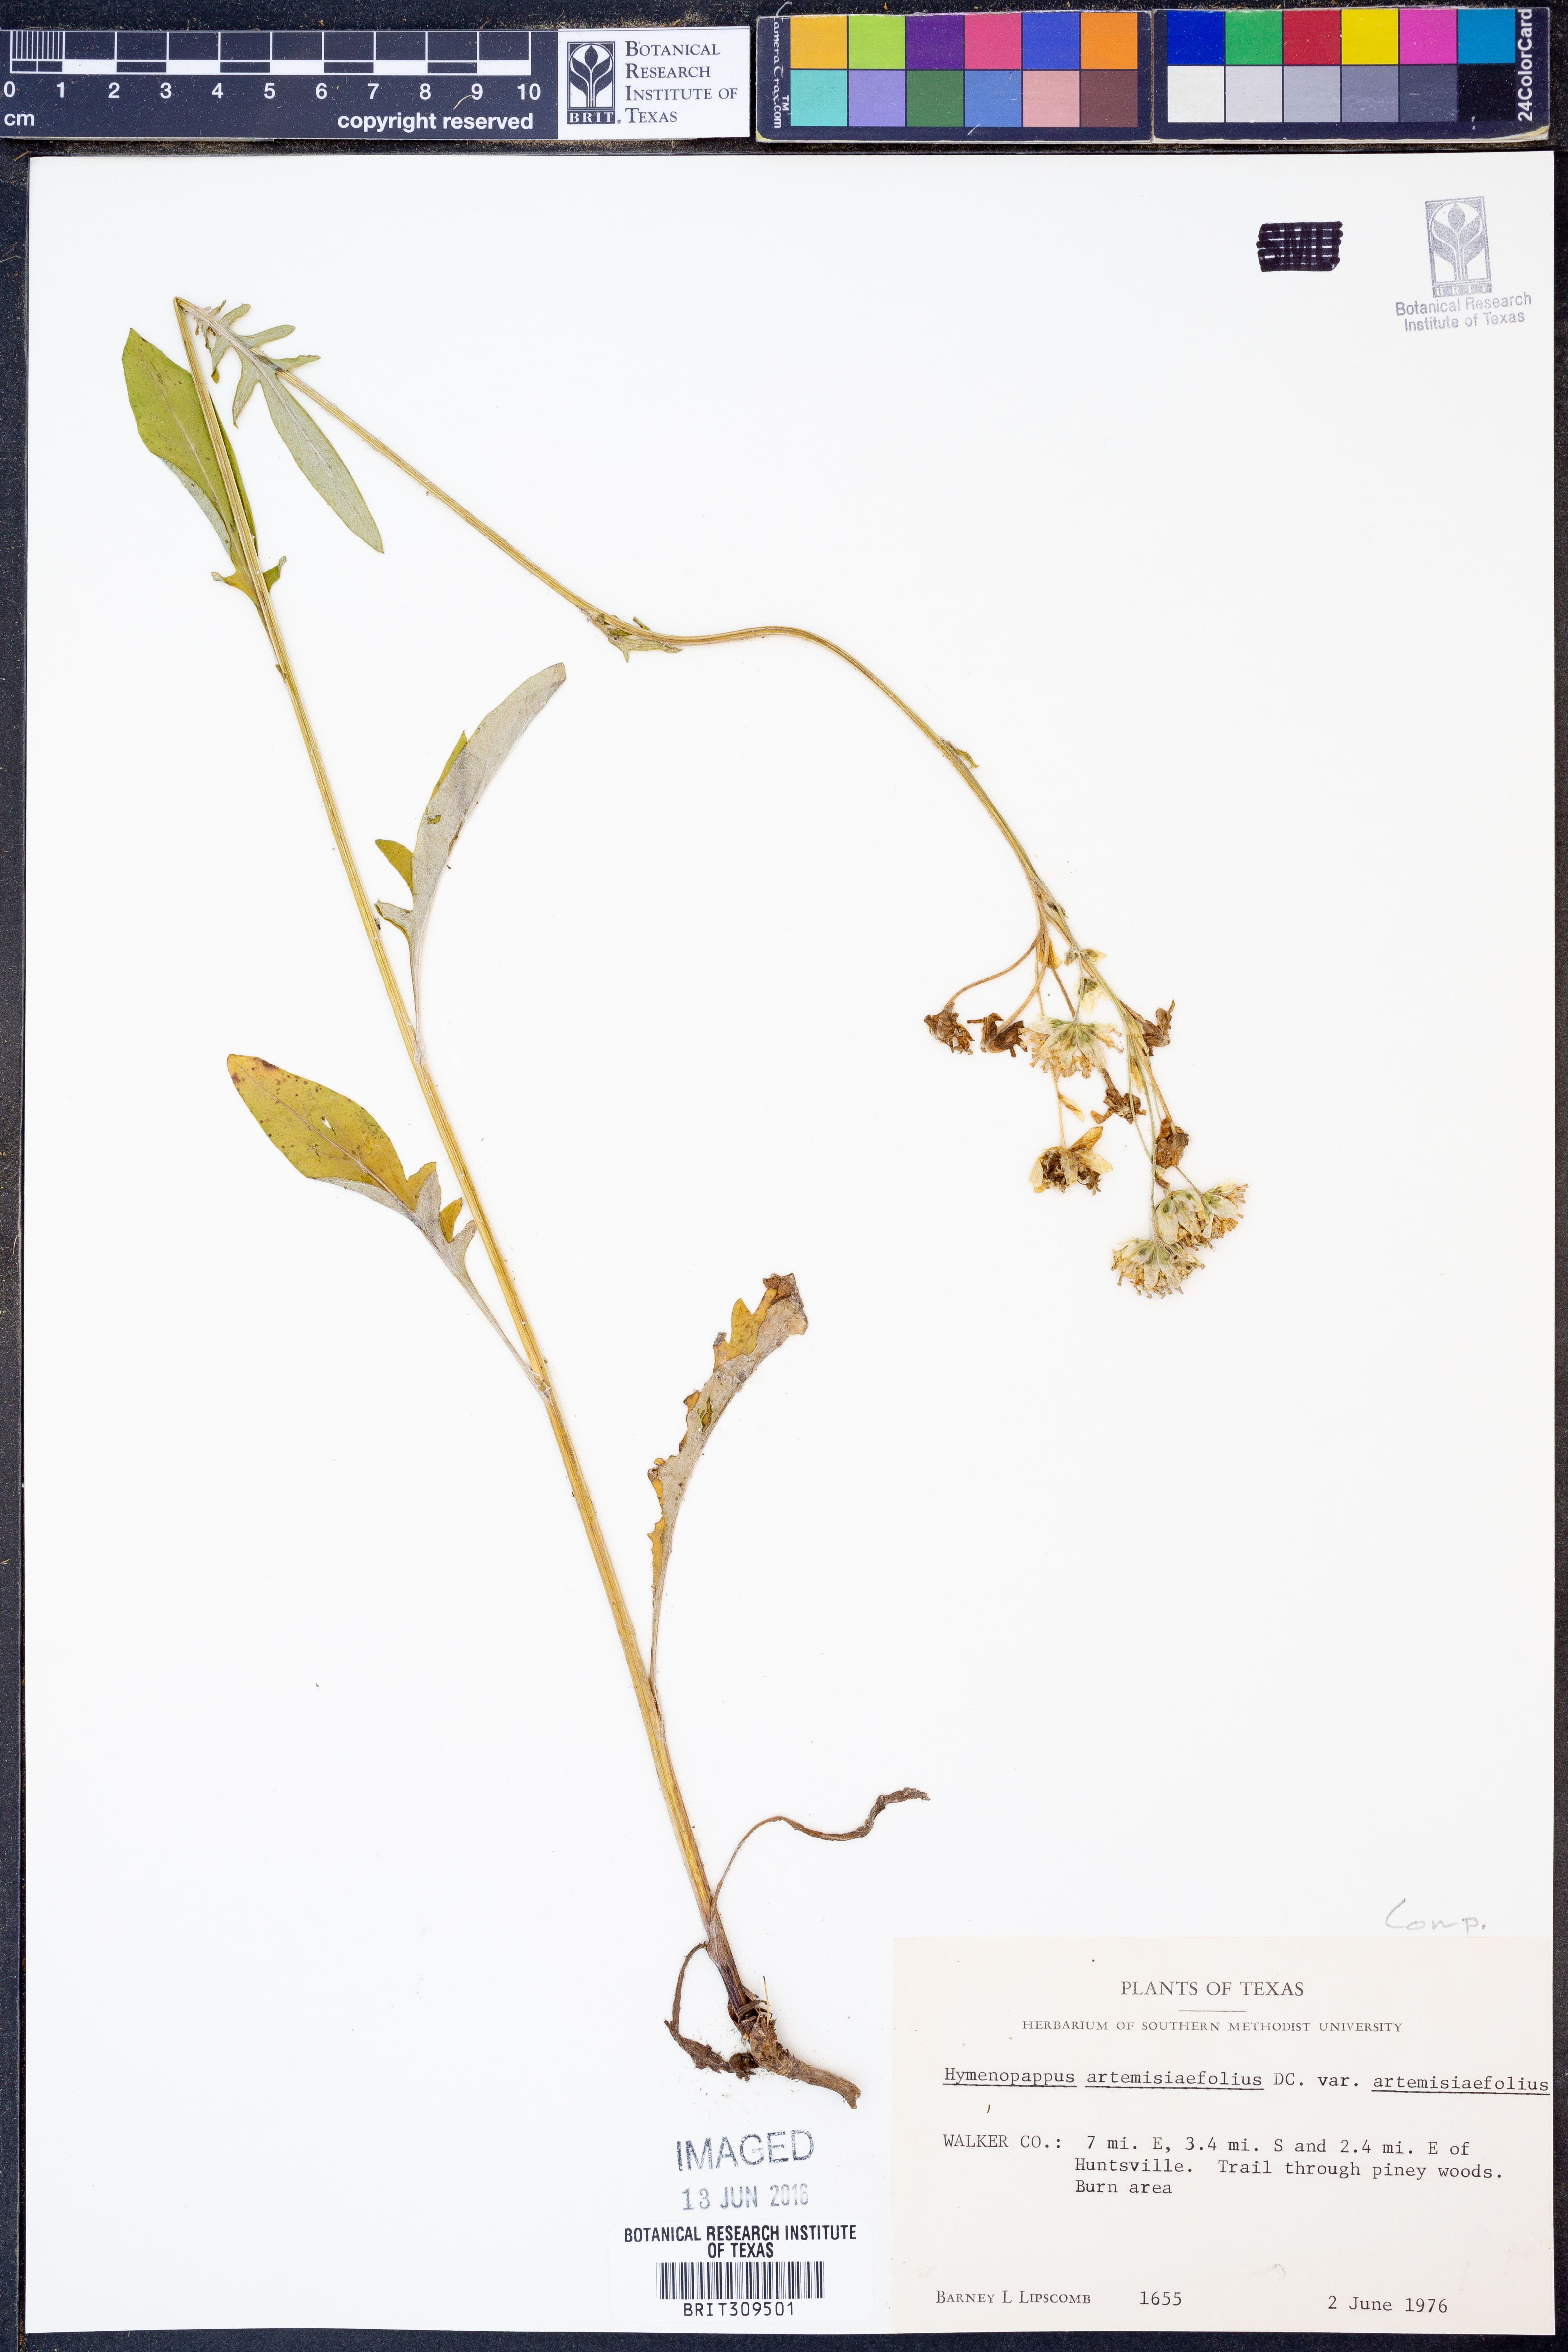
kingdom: Plantae
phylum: Tracheophyta
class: Magnoliopsida
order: Asterales
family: Asteraceae
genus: Hymenopappus
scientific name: Hymenopappus artemisiifolius
